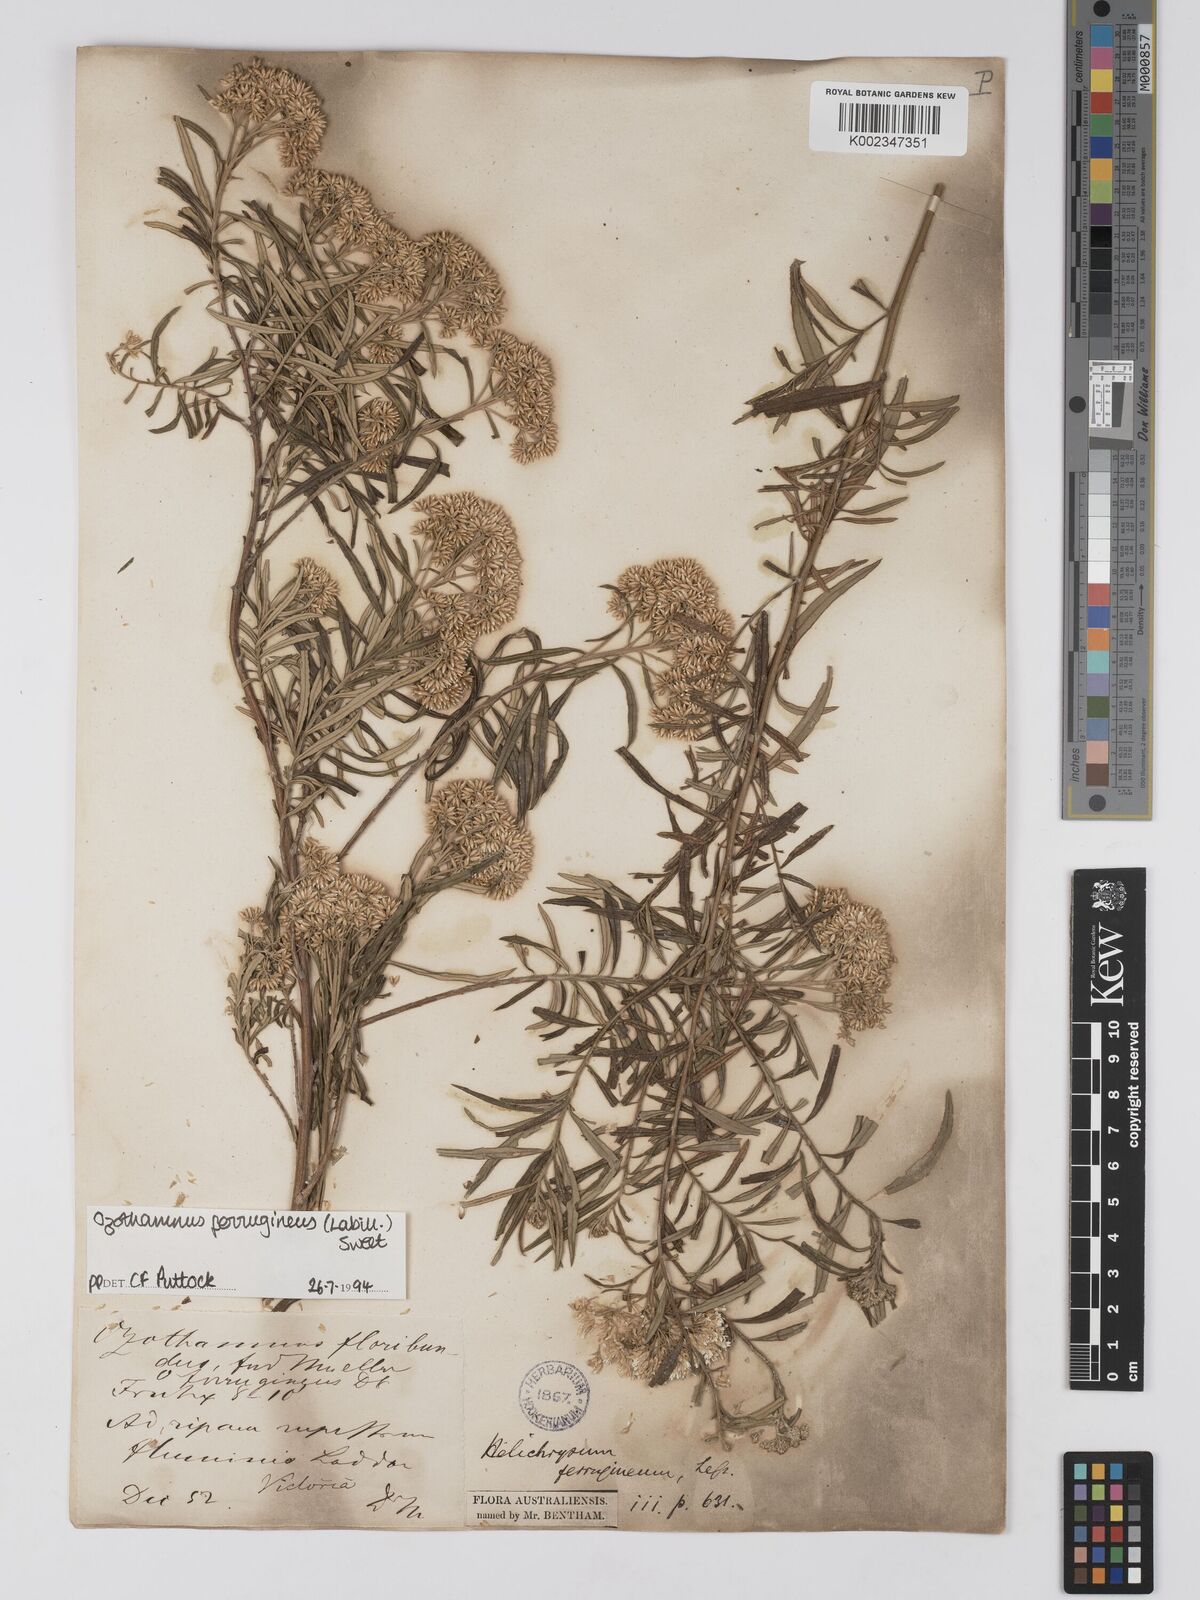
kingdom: Plantae
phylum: Tracheophyta
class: Magnoliopsida
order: Asterales
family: Asteraceae
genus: Ozothamnus
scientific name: Ozothamnus ferrugineus
